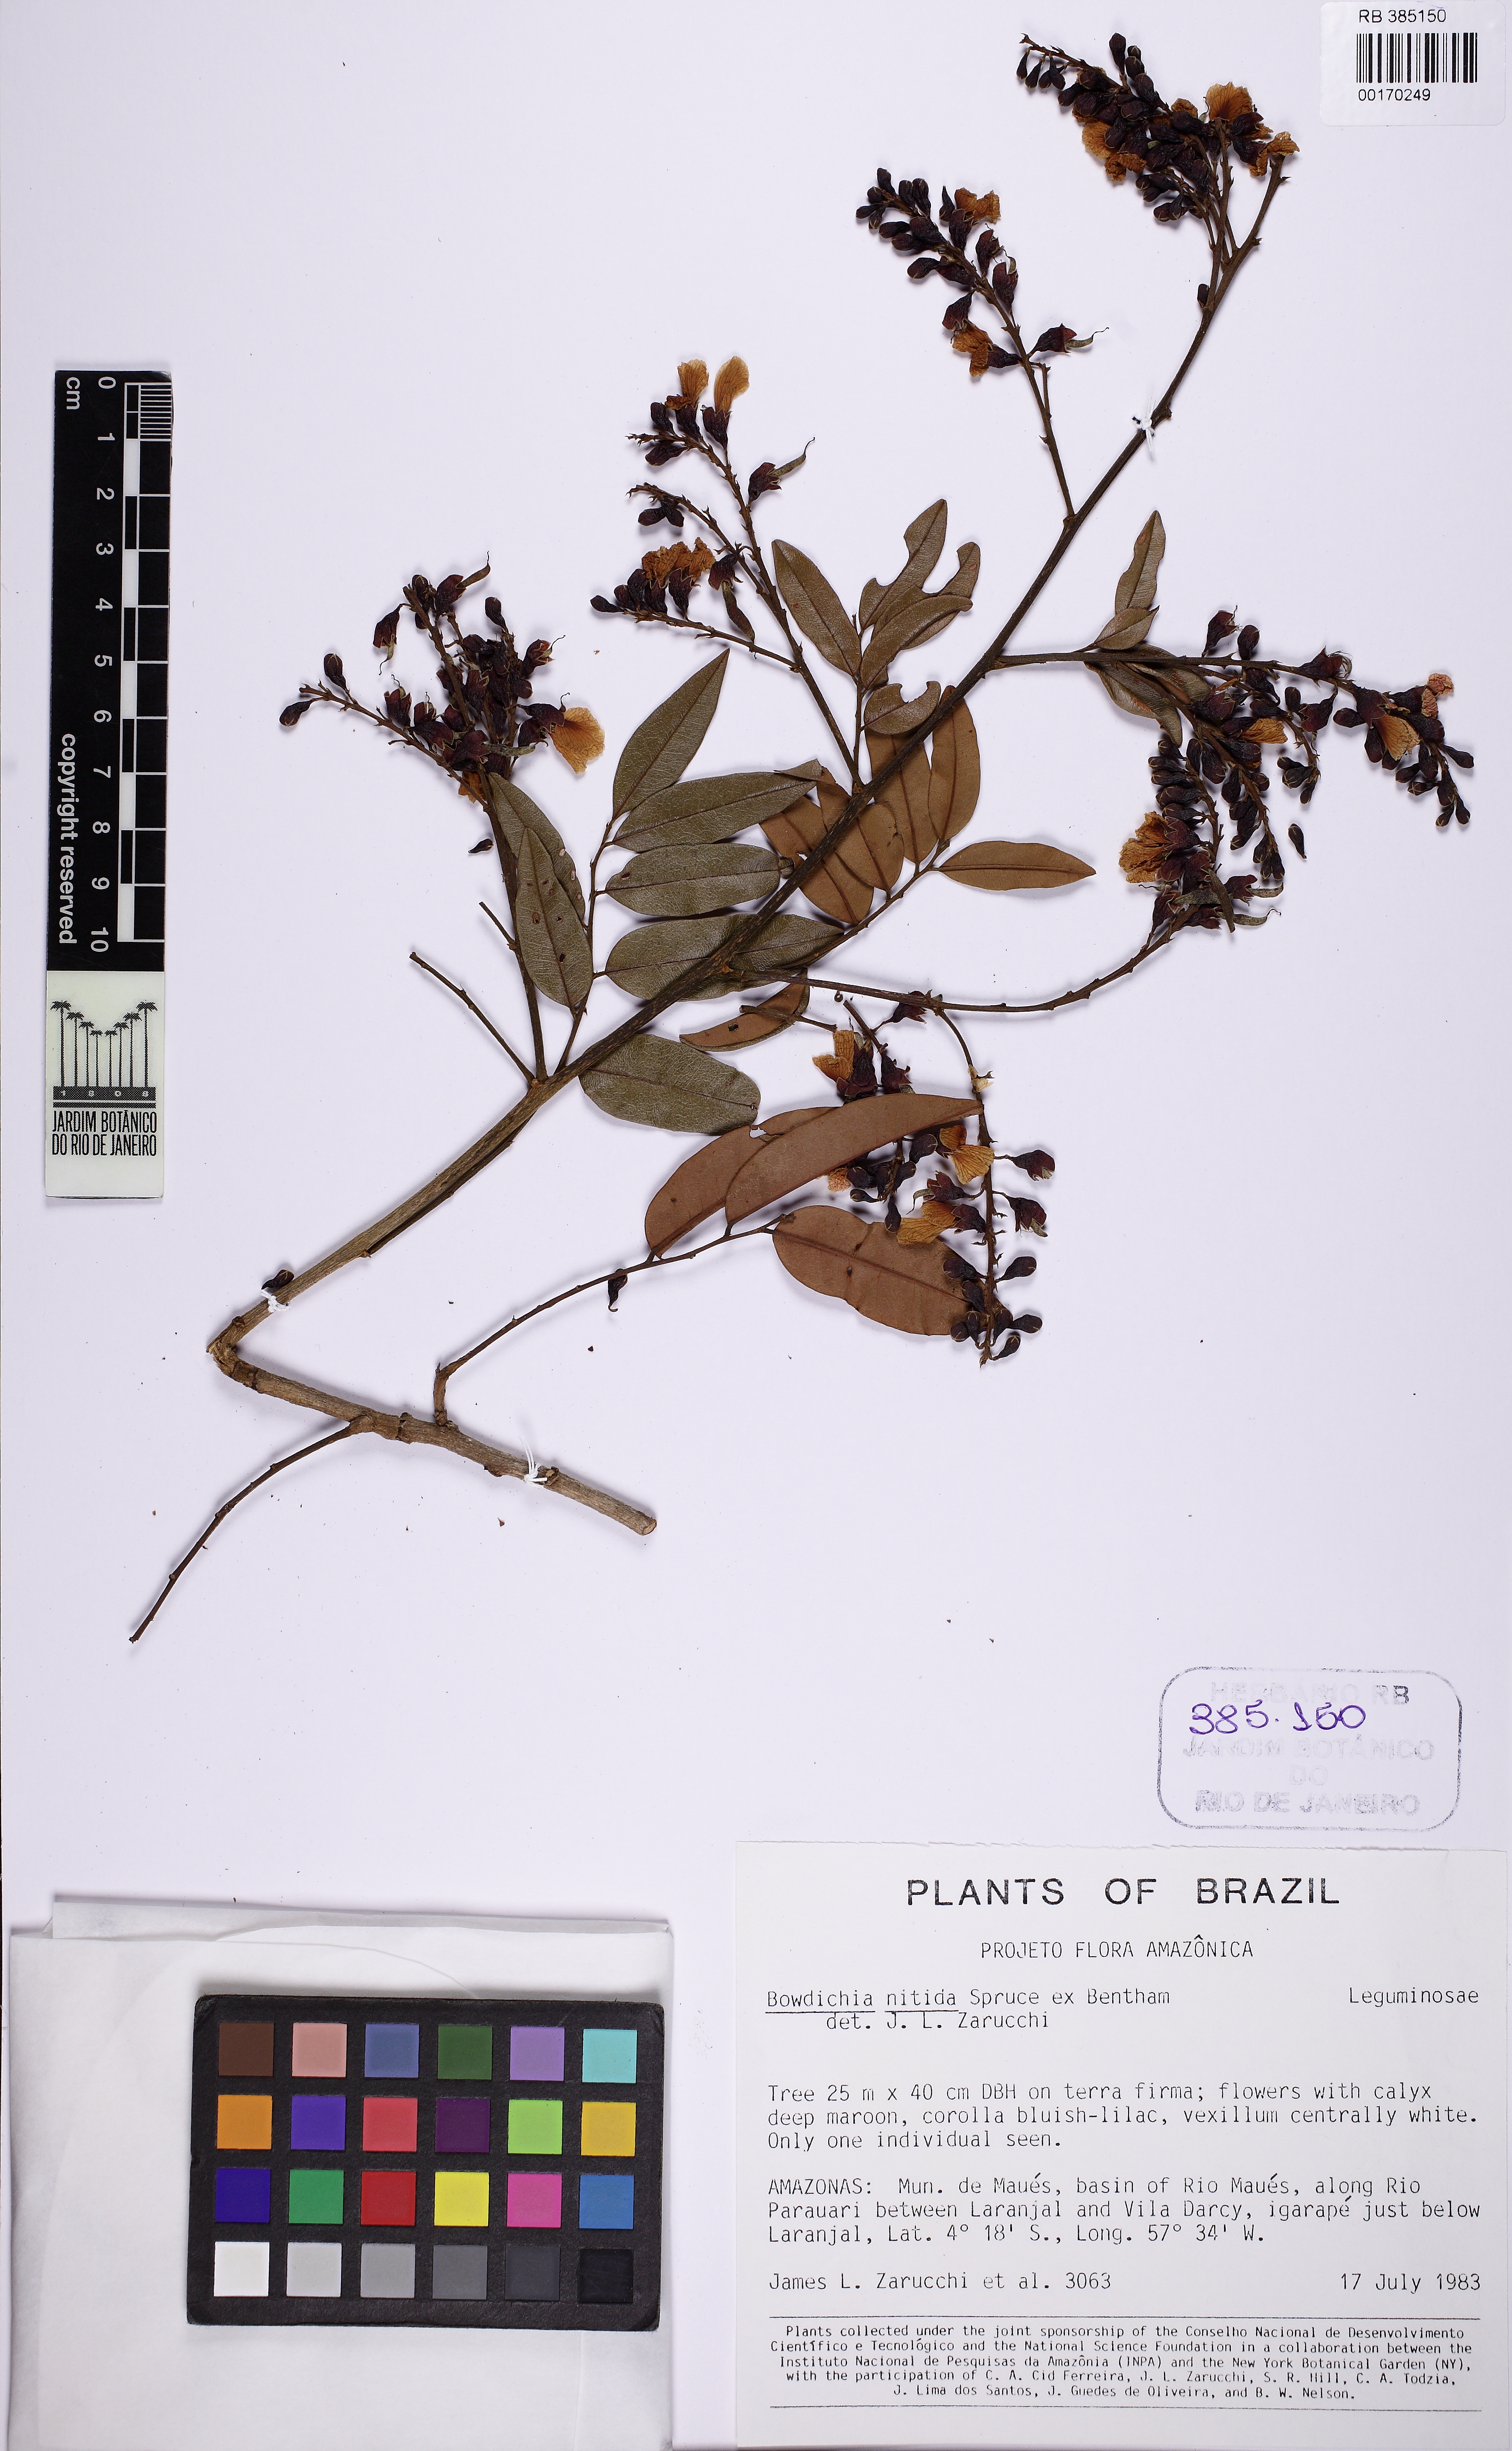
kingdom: Plantae
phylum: Tracheophyta
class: Magnoliopsida
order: Fabales
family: Fabaceae
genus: Bowdichia
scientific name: Bowdichia nitida
